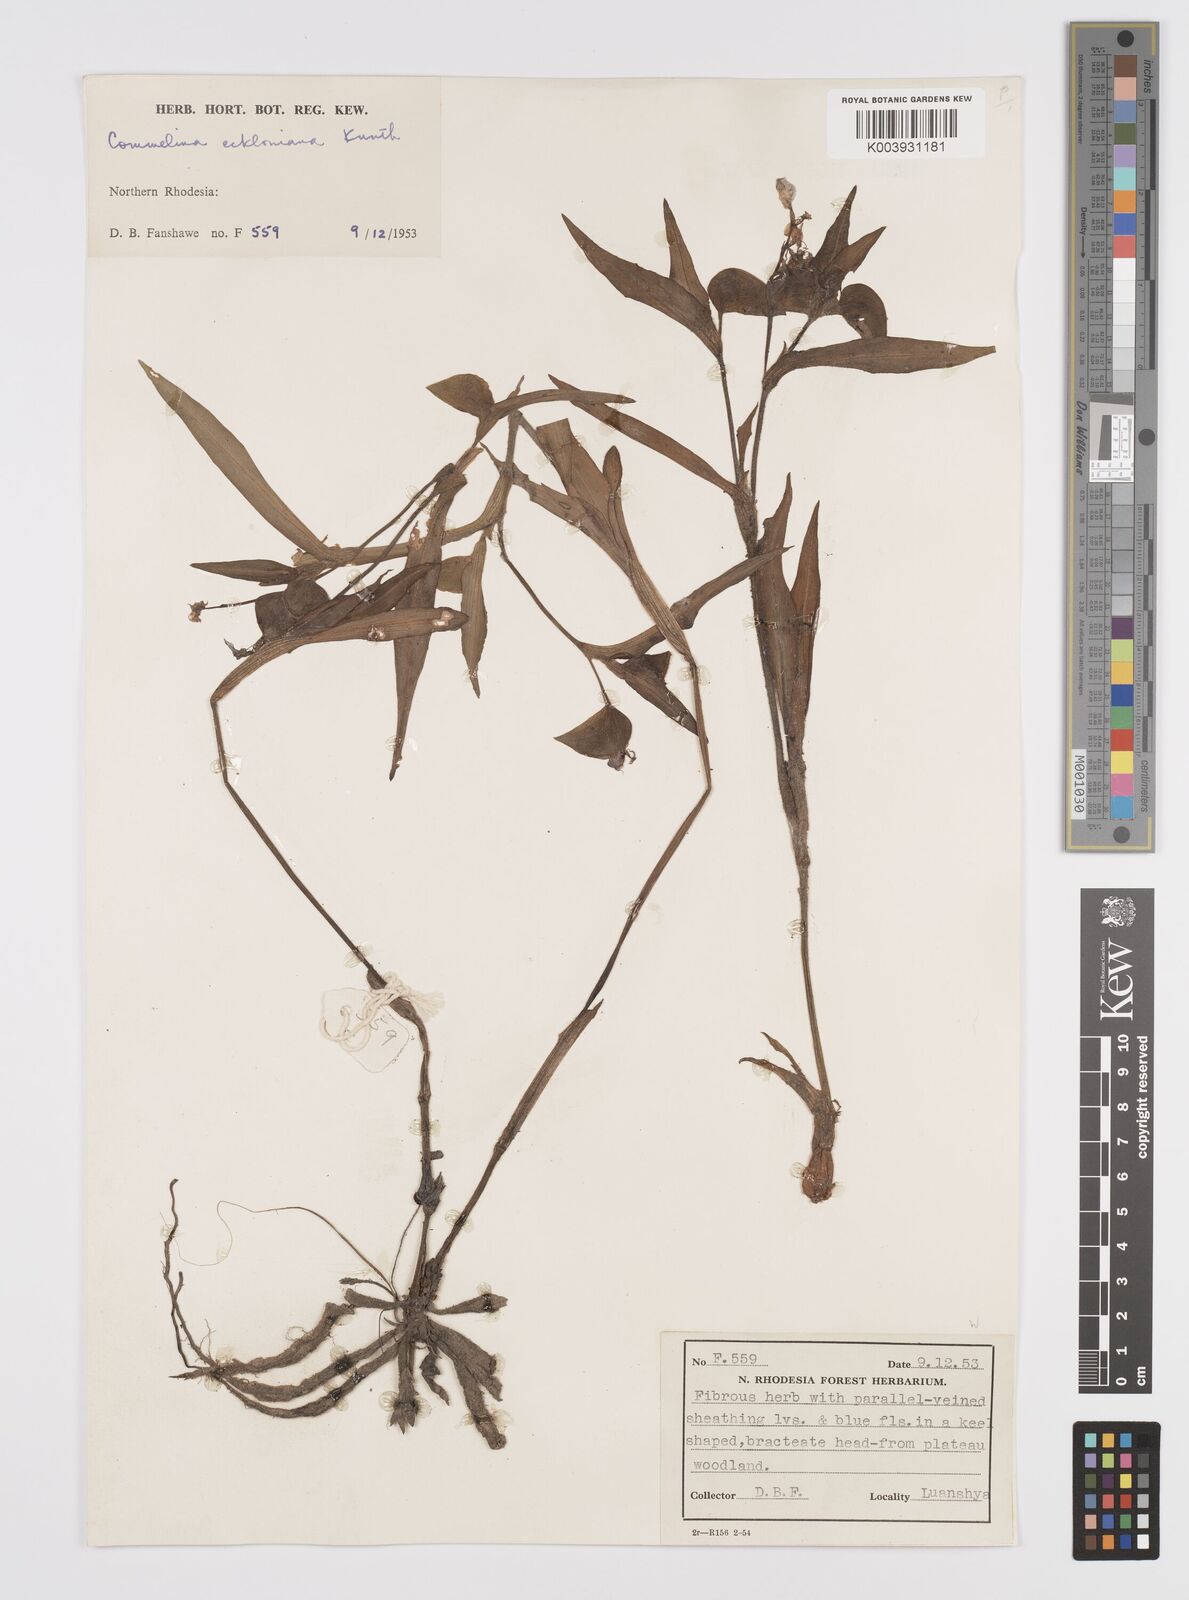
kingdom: Plantae
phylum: Tracheophyta
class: Liliopsida
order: Commelinales
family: Commelinaceae
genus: Commelina
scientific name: Commelina eckloniana
